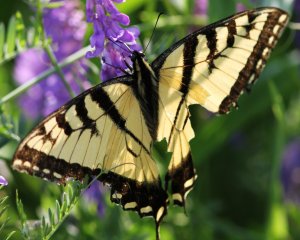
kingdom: Animalia
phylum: Arthropoda
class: Insecta
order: Lepidoptera
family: Papilionidae
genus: Pterourus
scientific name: Pterourus glaucus
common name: Eastern Tiger Swallowtail
